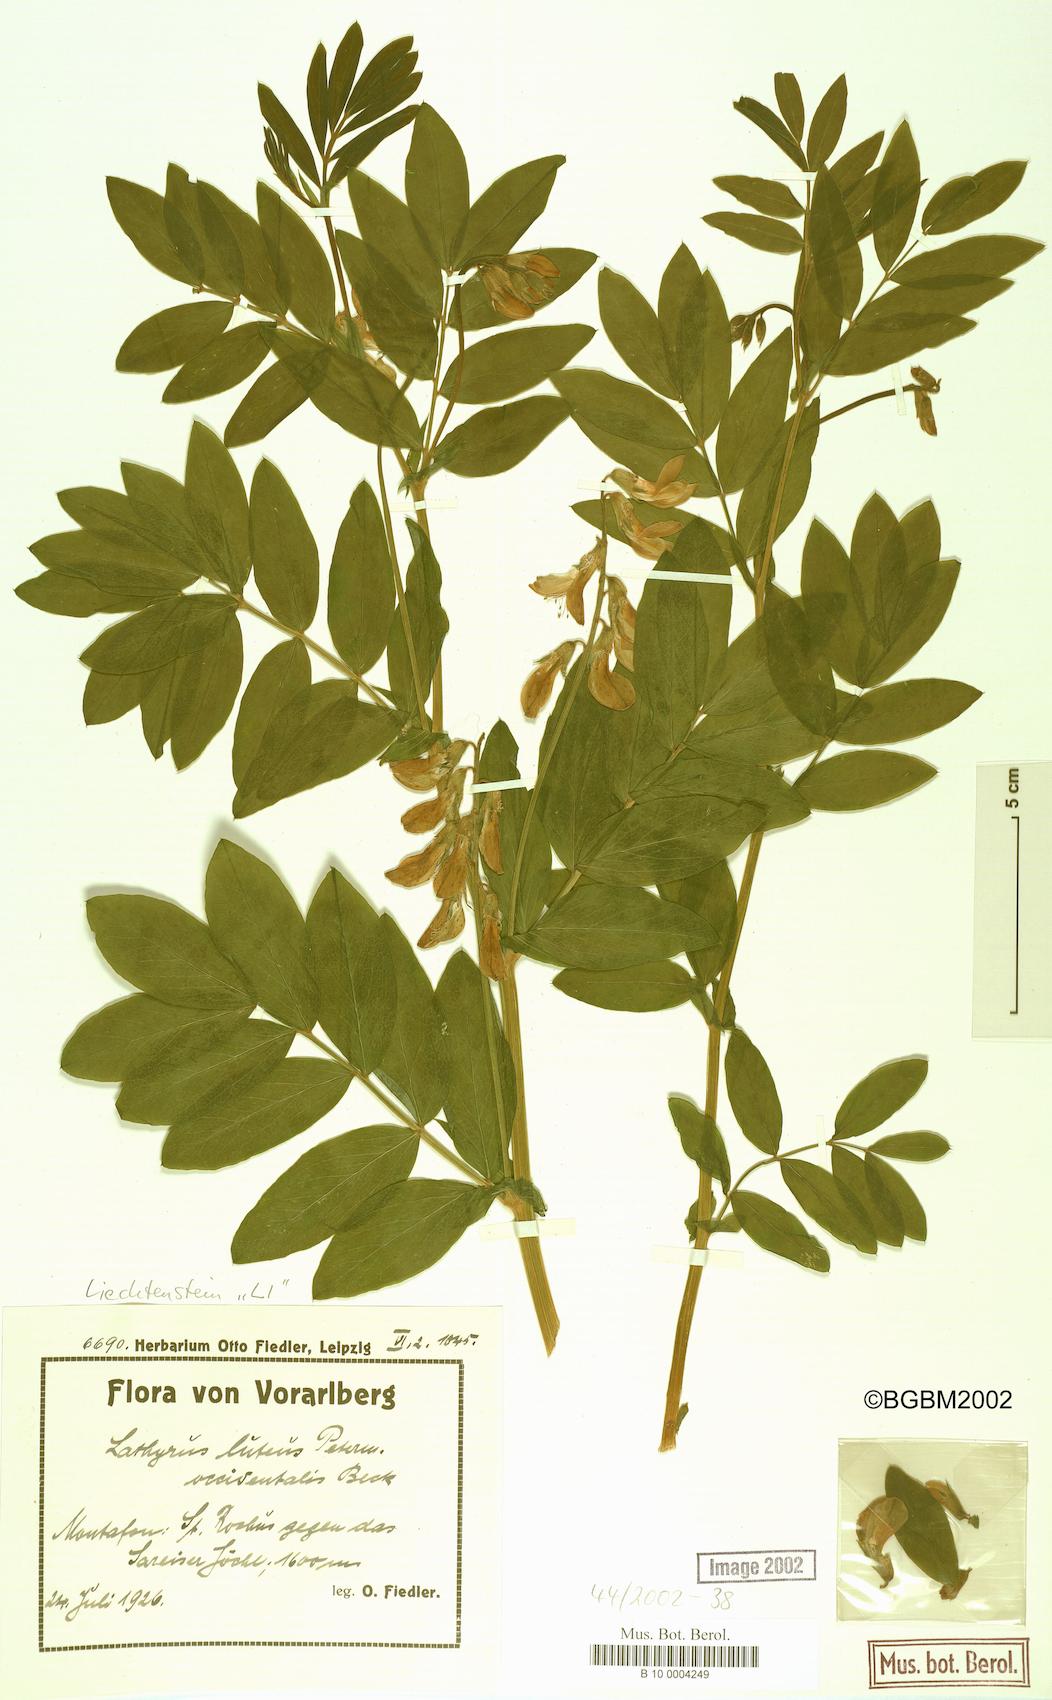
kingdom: Plantae
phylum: Tracheophyta
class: Magnoliopsida
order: Fabales
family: Fabaceae
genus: Lathyrus
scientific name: Lathyrus gmelinii
